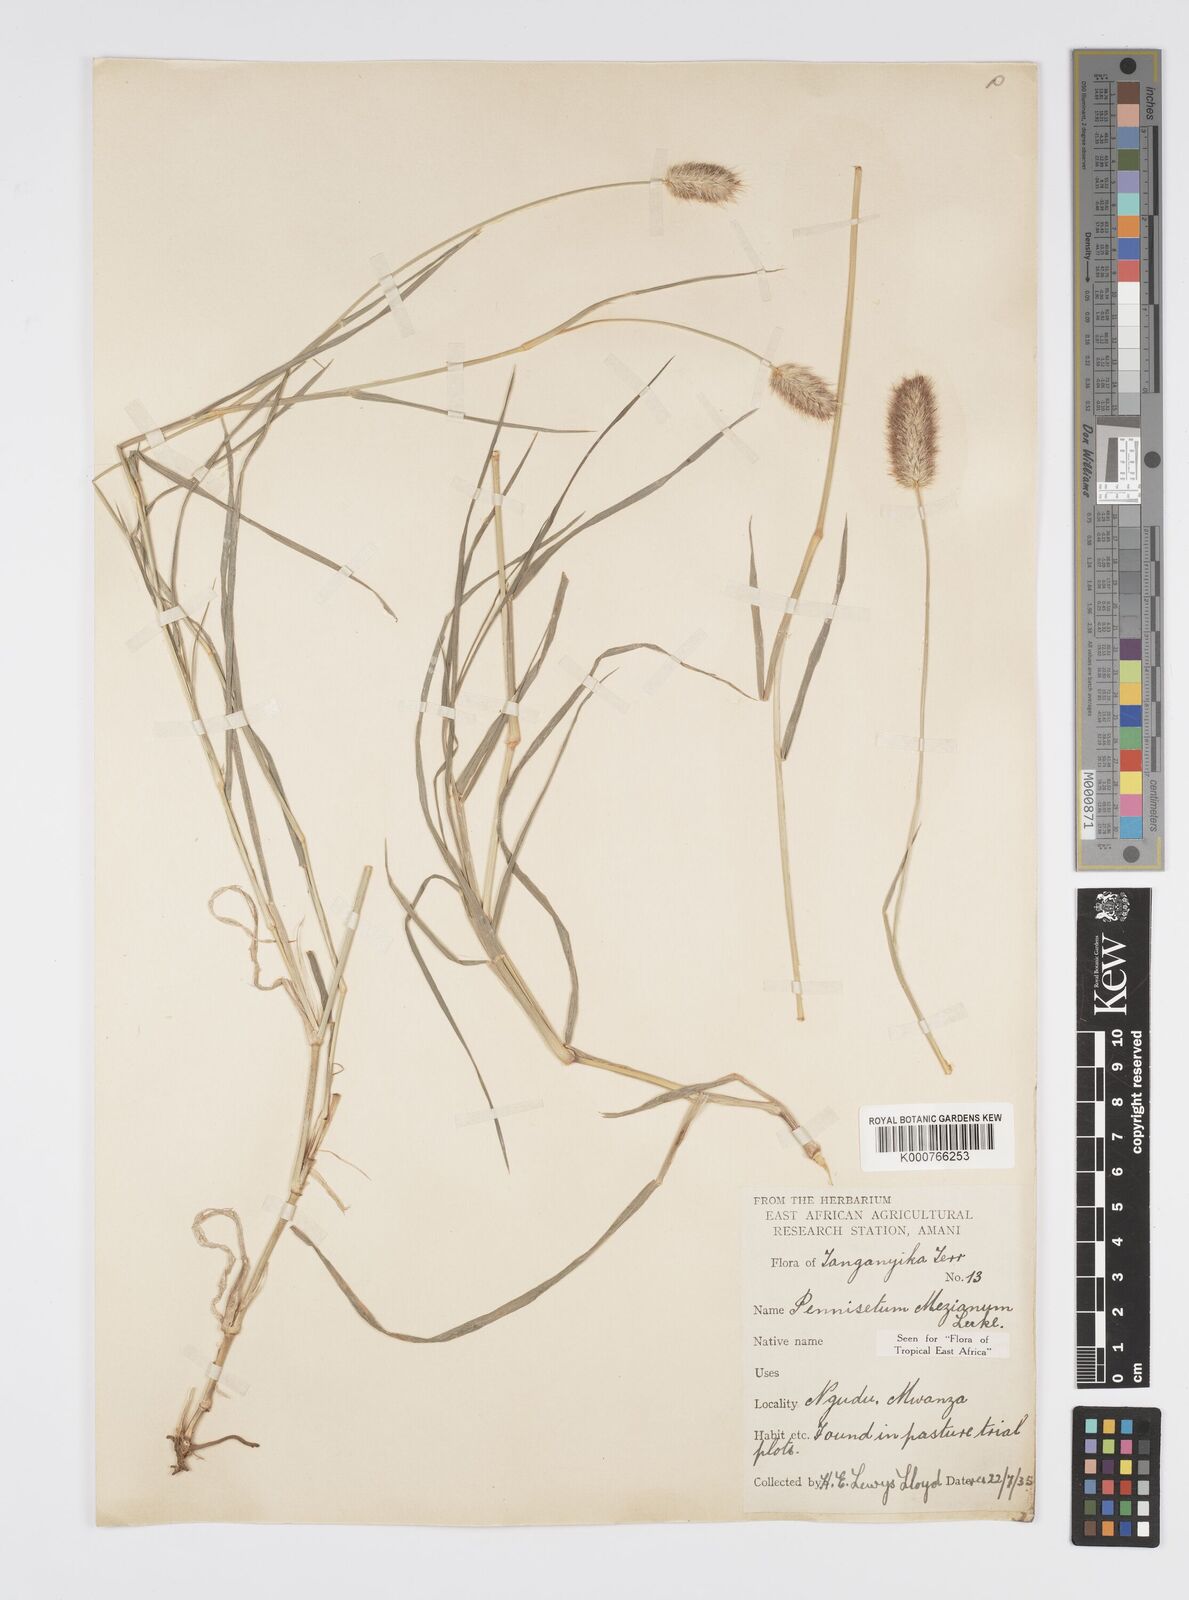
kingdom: Plantae
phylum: Tracheophyta
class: Liliopsida
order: Poales
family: Poaceae
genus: Cenchrus
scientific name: Cenchrus mezianus
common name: Bamboo grass
